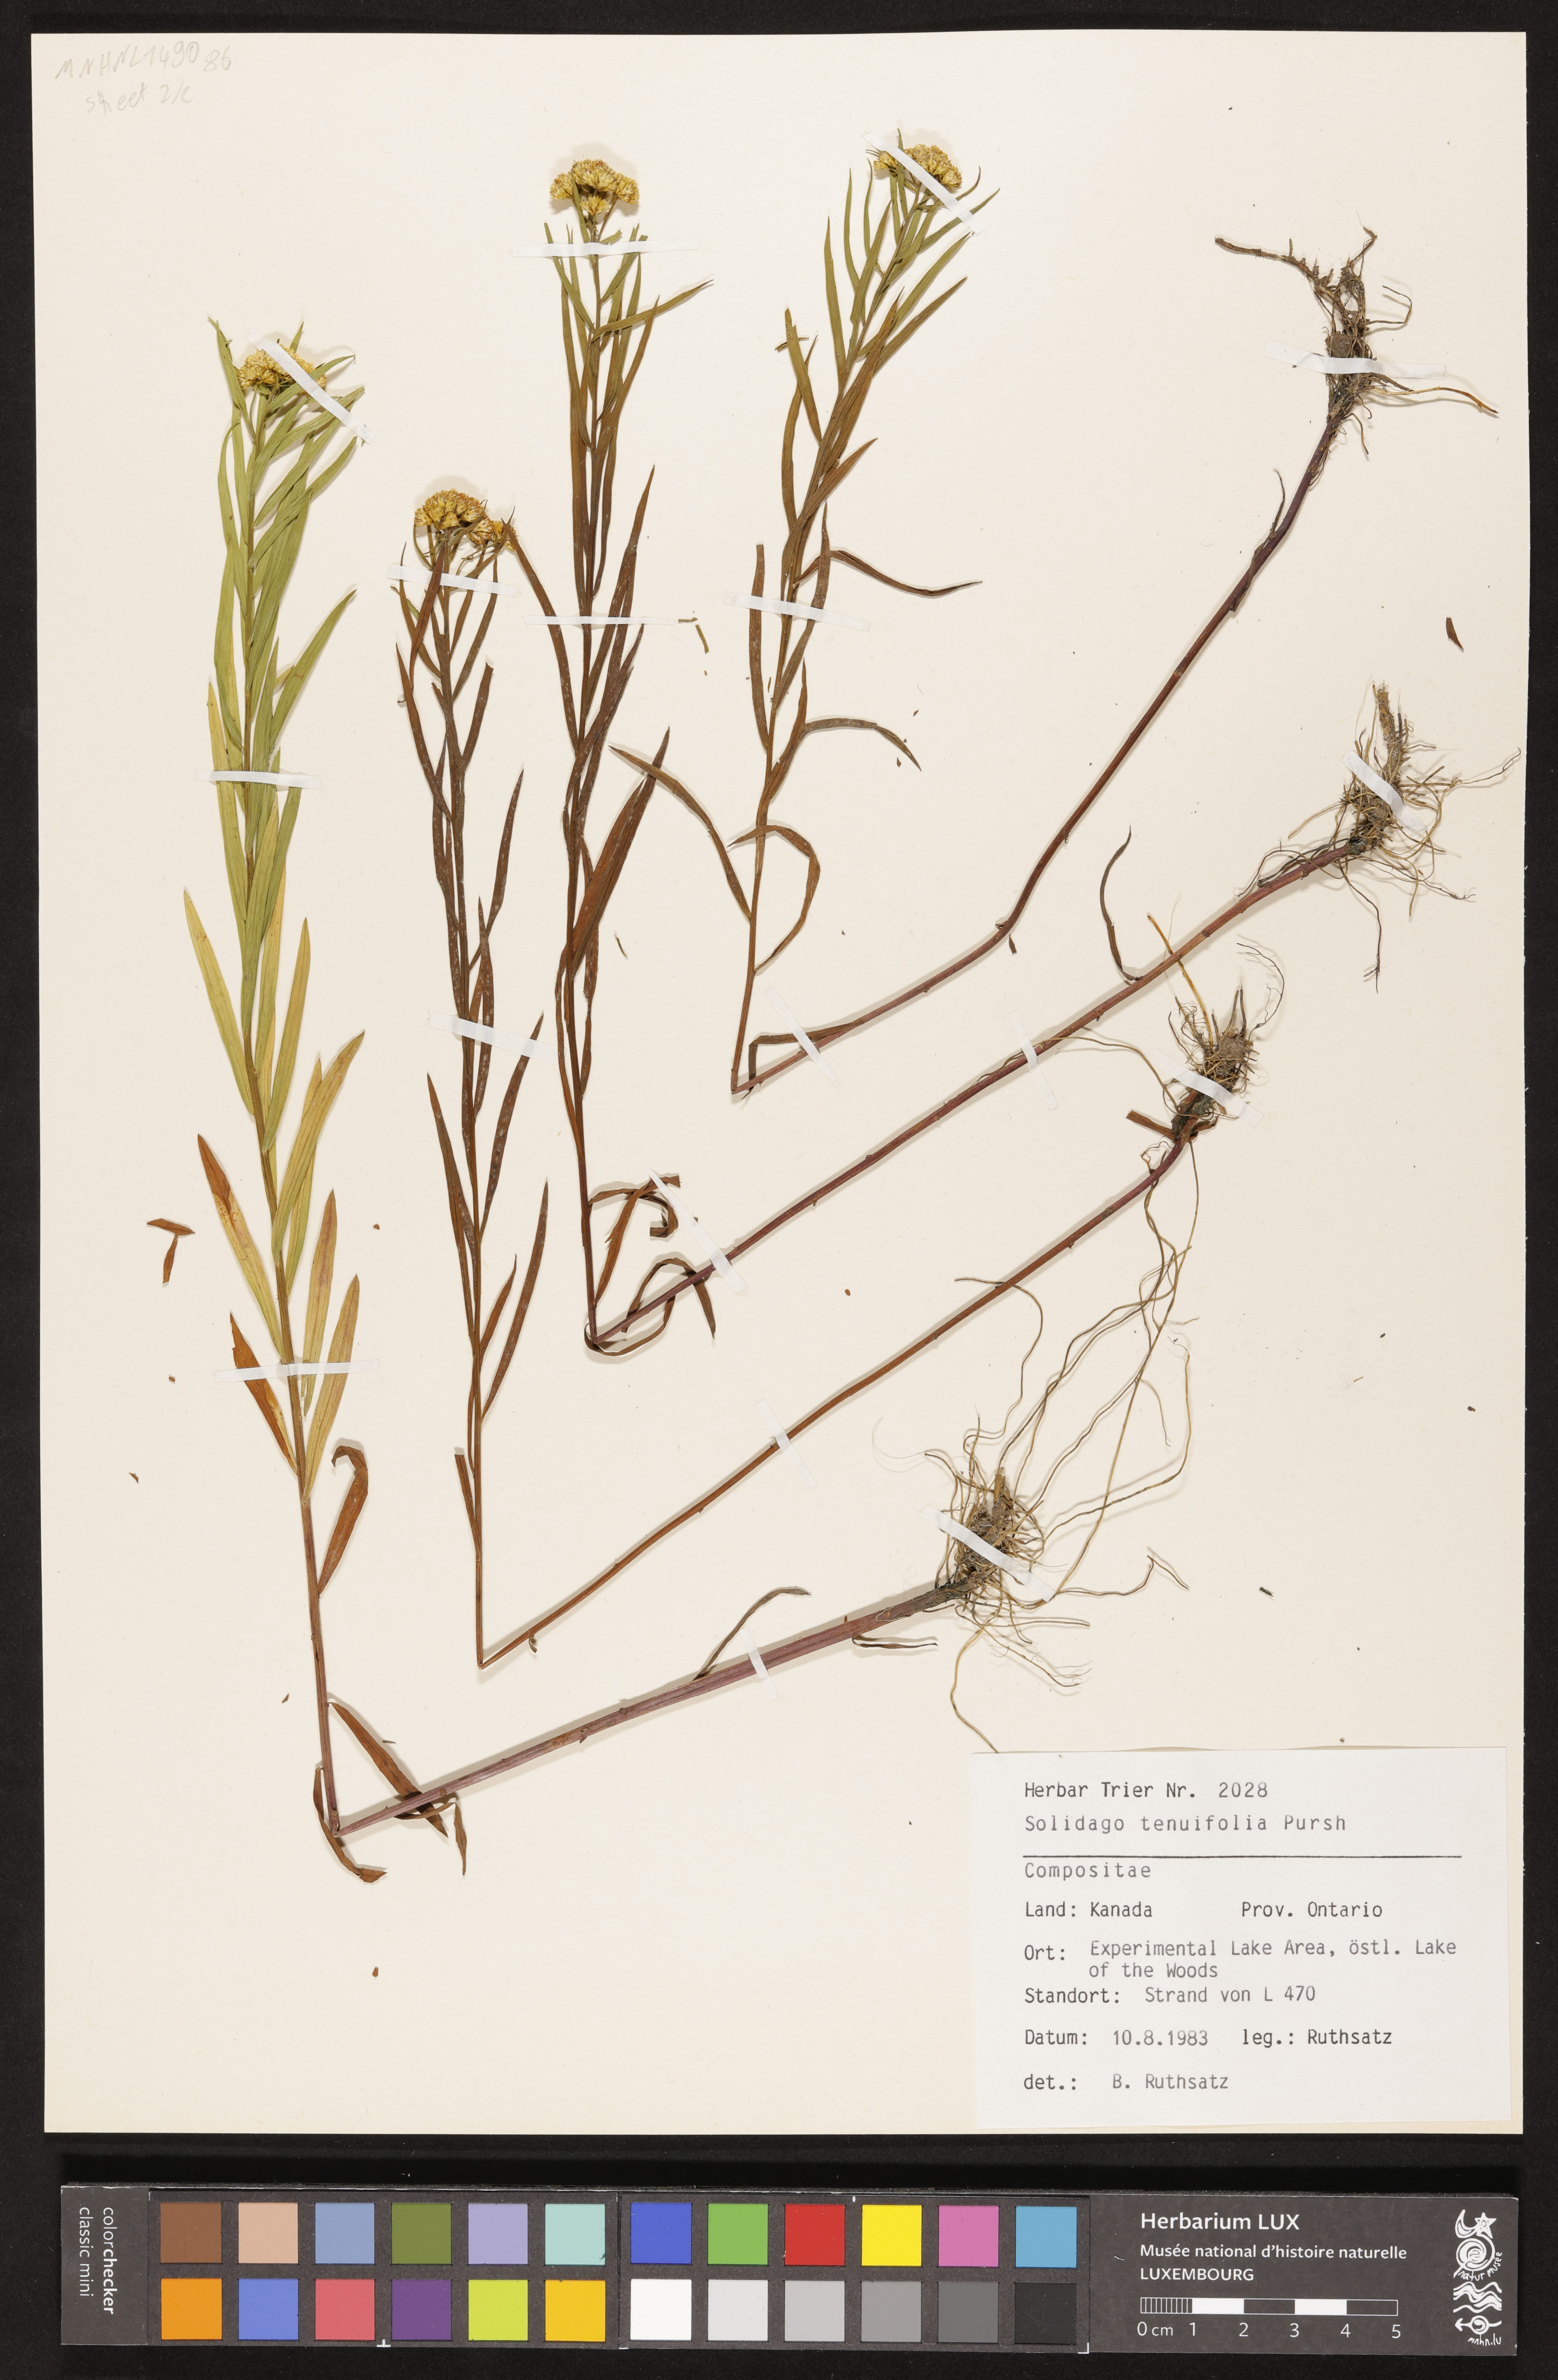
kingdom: Plantae
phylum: Tracheophyta
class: Magnoliopsida
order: Asterales
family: Asteraceae
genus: Euthamia
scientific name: Euthamia caroliniana
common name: Coastal plain goldentop
